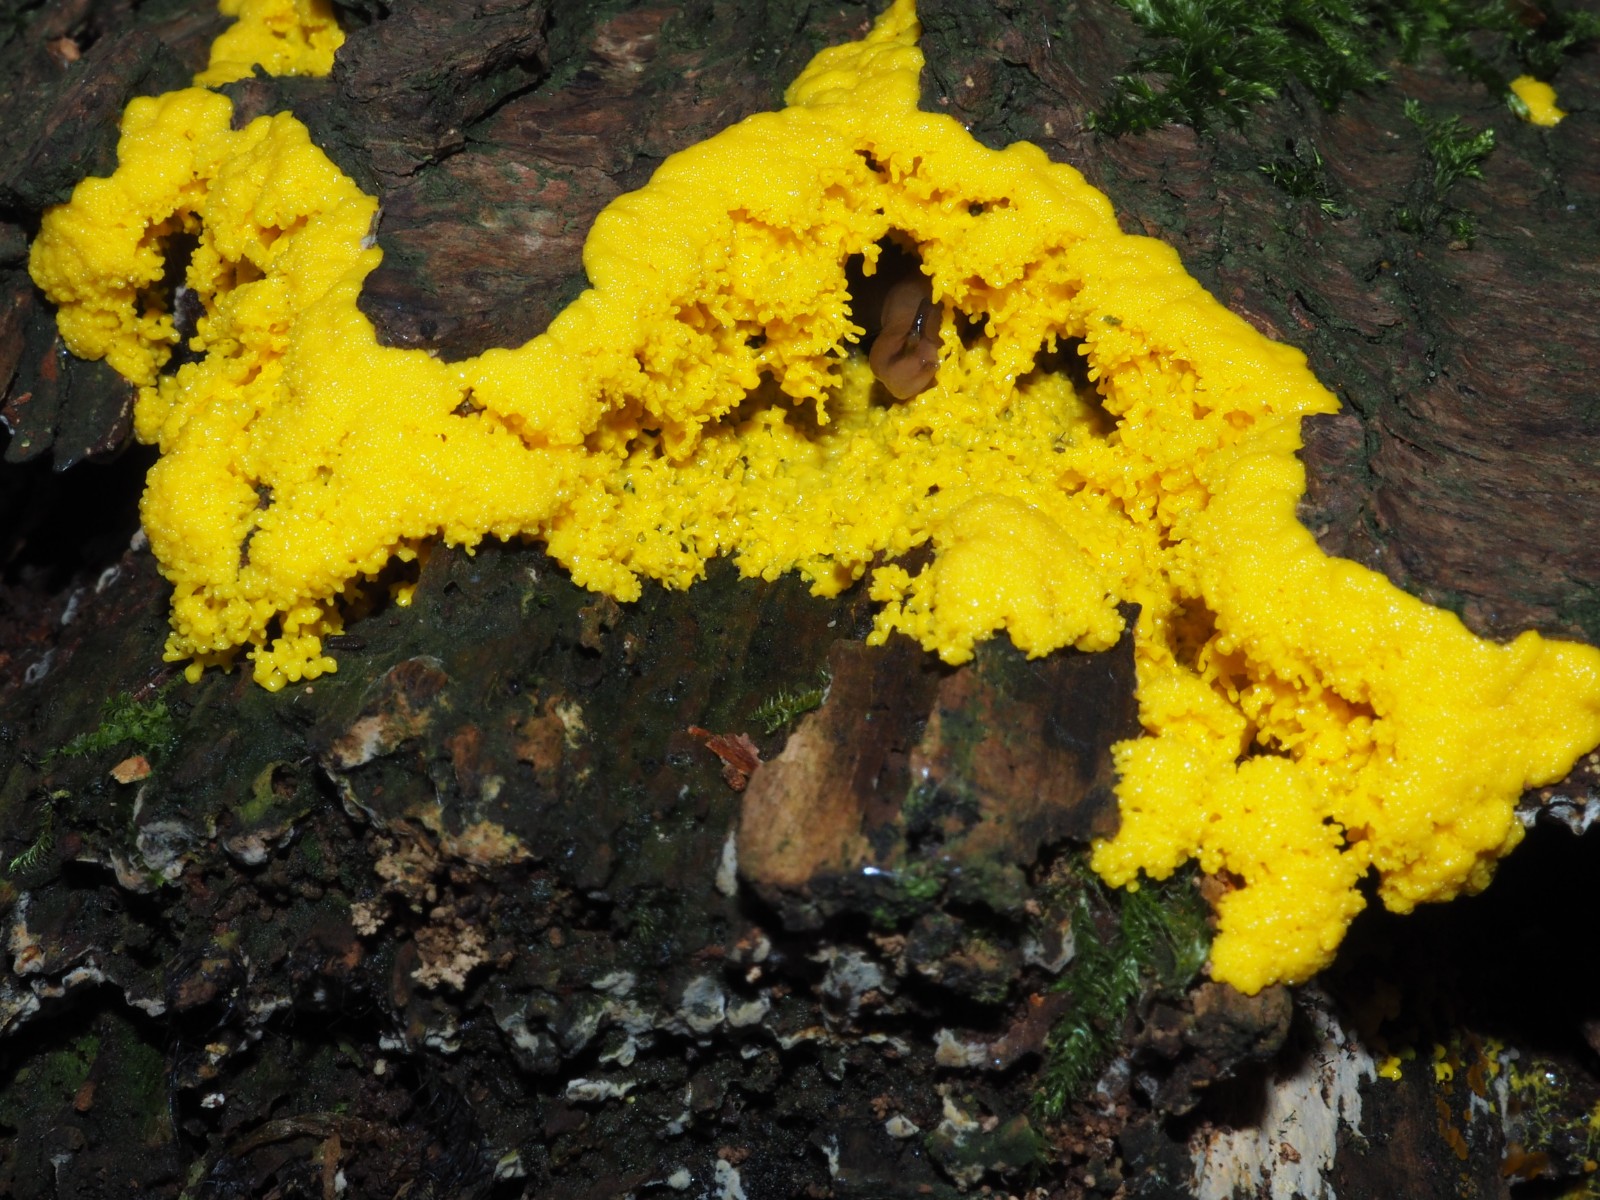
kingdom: Protozoa
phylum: Mycetozoa
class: Myxomycetes
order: Physarales
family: Physaraceae
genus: Fuligo
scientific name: Fuligo septica
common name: gul troldsmør
